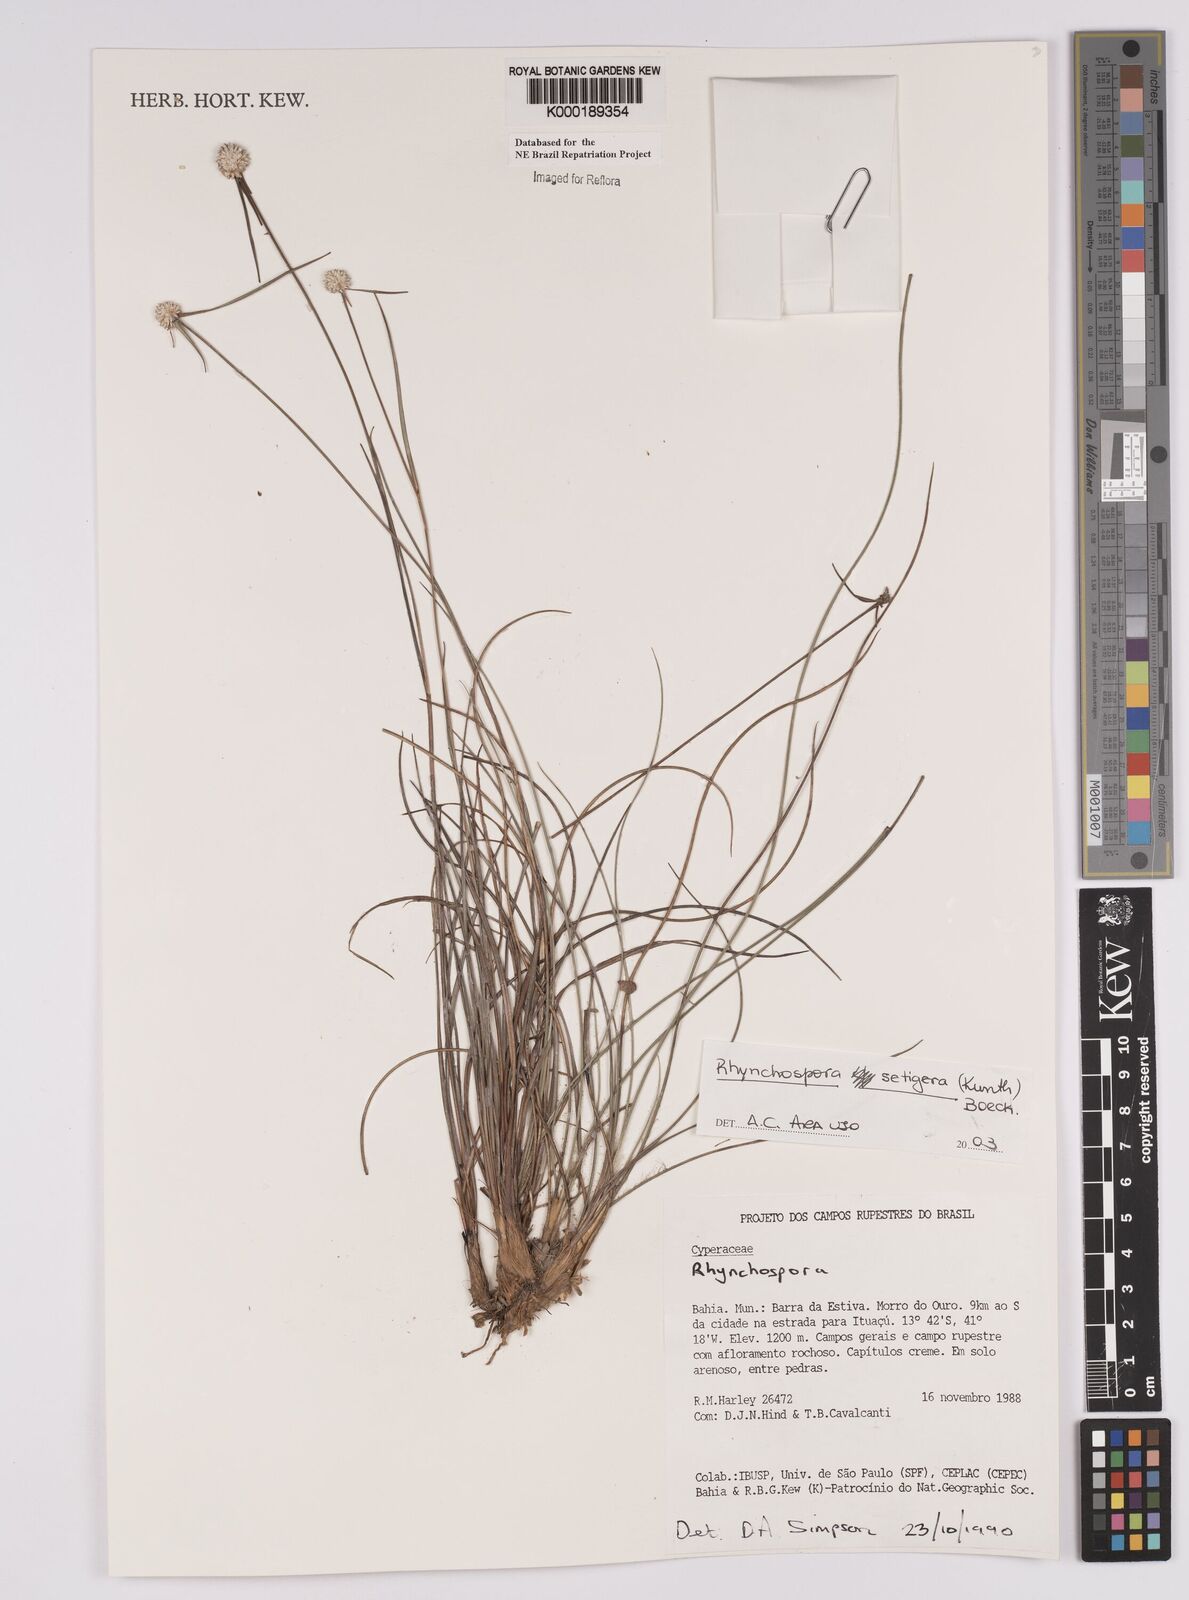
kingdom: Plantae
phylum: Tracheophyta
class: Liliopsida
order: Poales
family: Cyperaceae
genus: Rhynchospora
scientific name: Rhynchospora
